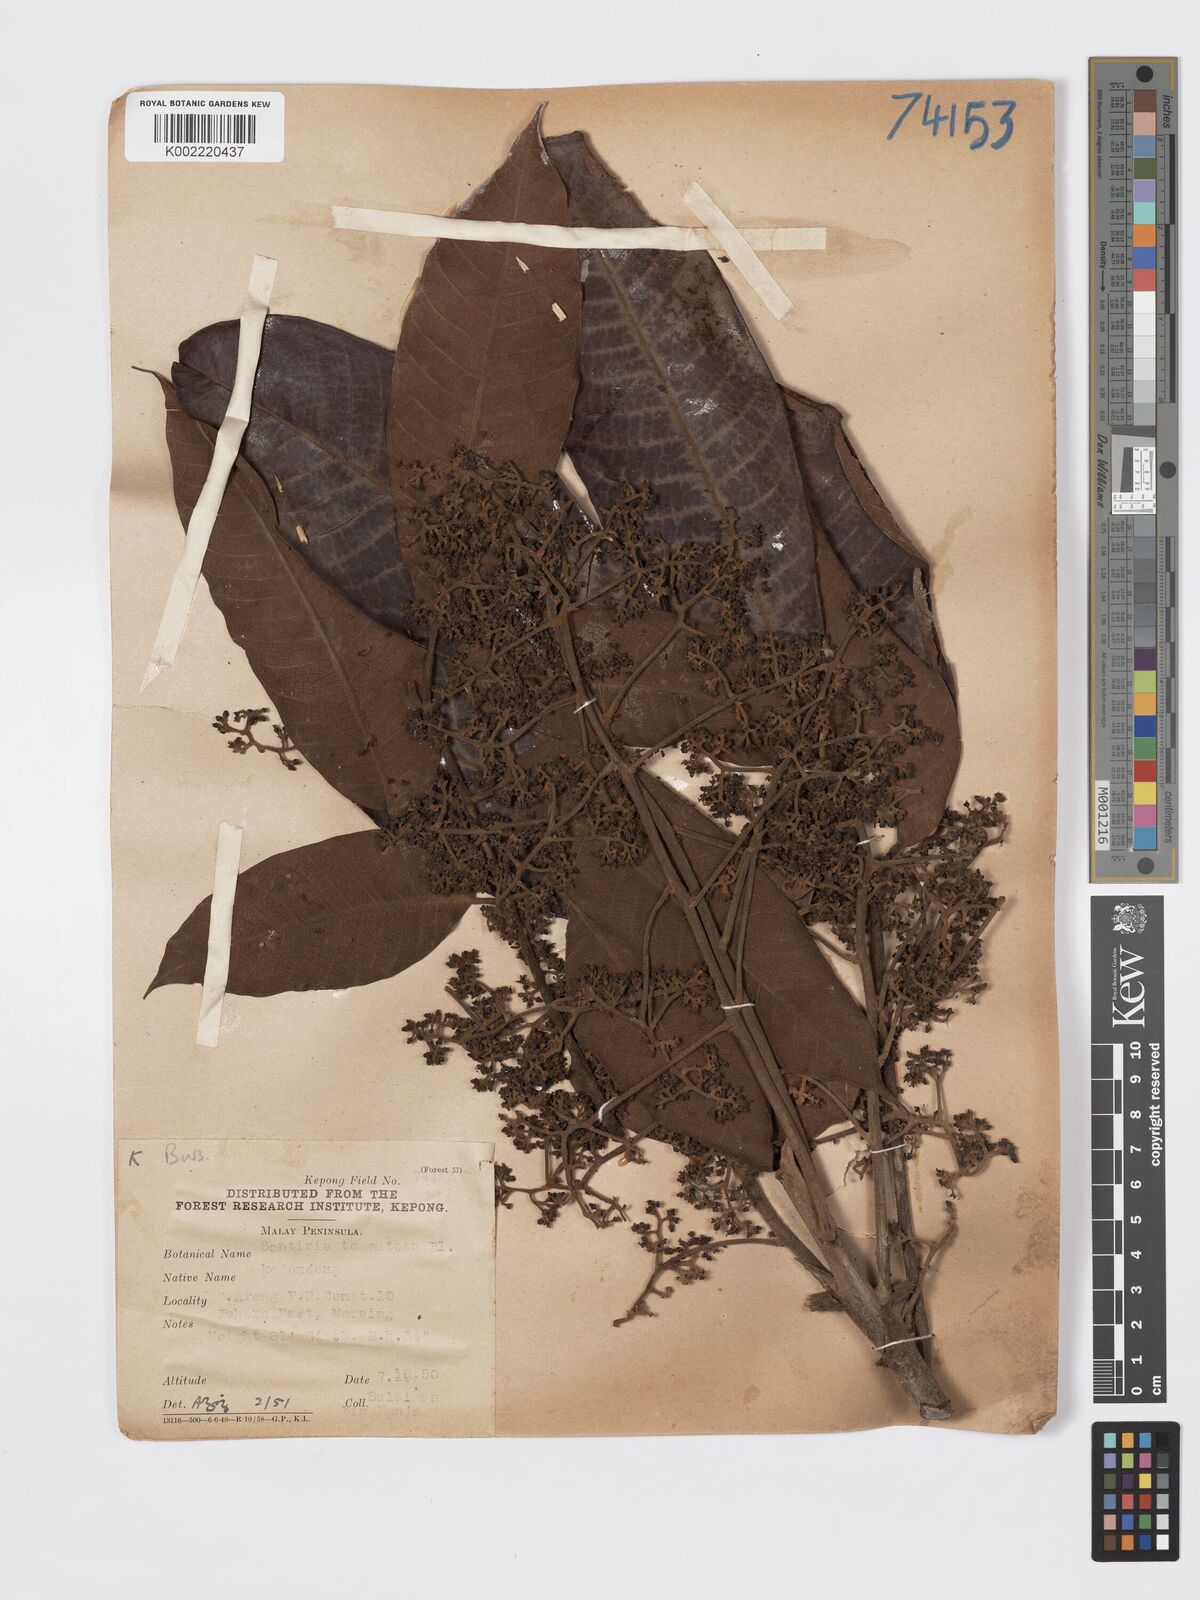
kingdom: Plantae
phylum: Tracheophyta
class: Magnoliopsida
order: Sapindales
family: Burseraceae
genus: Santiria
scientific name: Santiria tomentosa
